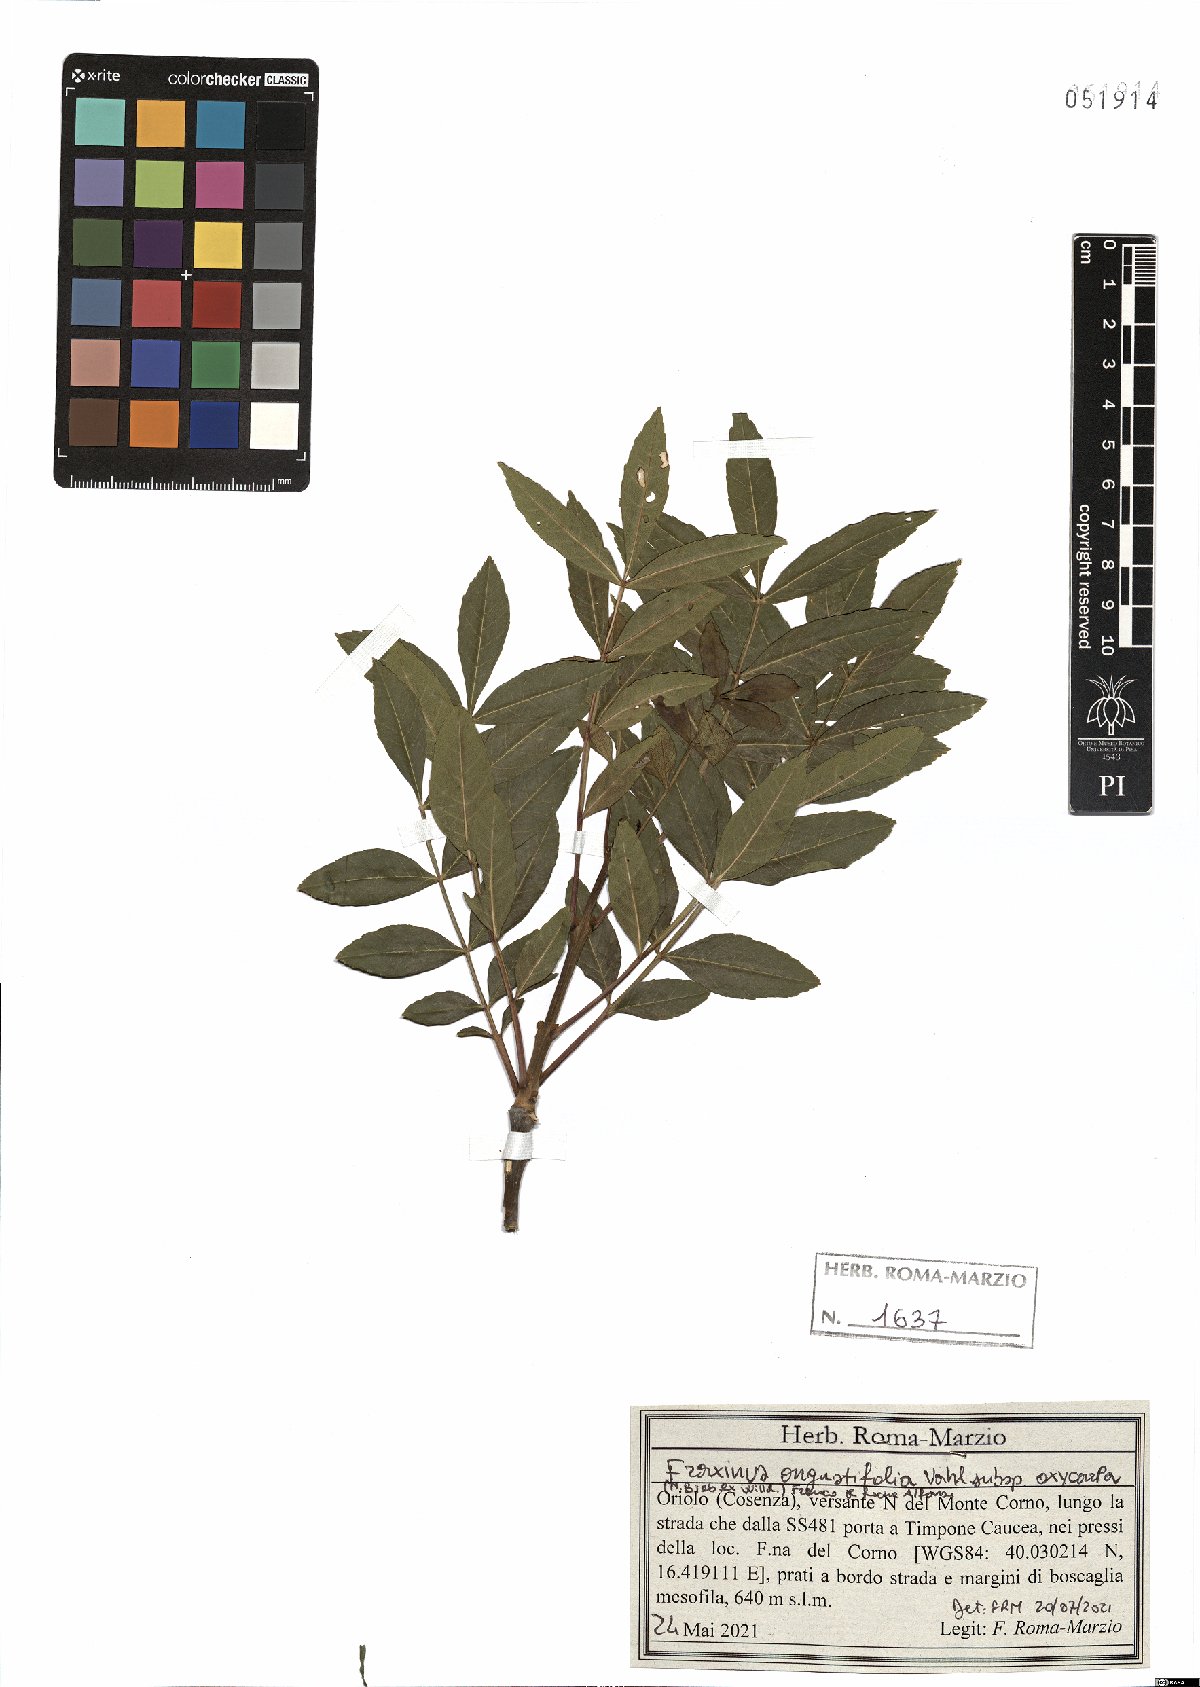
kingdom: Plantae
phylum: Tracheophyta
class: Magnoliopsida
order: Lamiales
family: Oleaceae
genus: Fraxinus
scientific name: Fraxinus angustifolia
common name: Narrow-leafed ash
